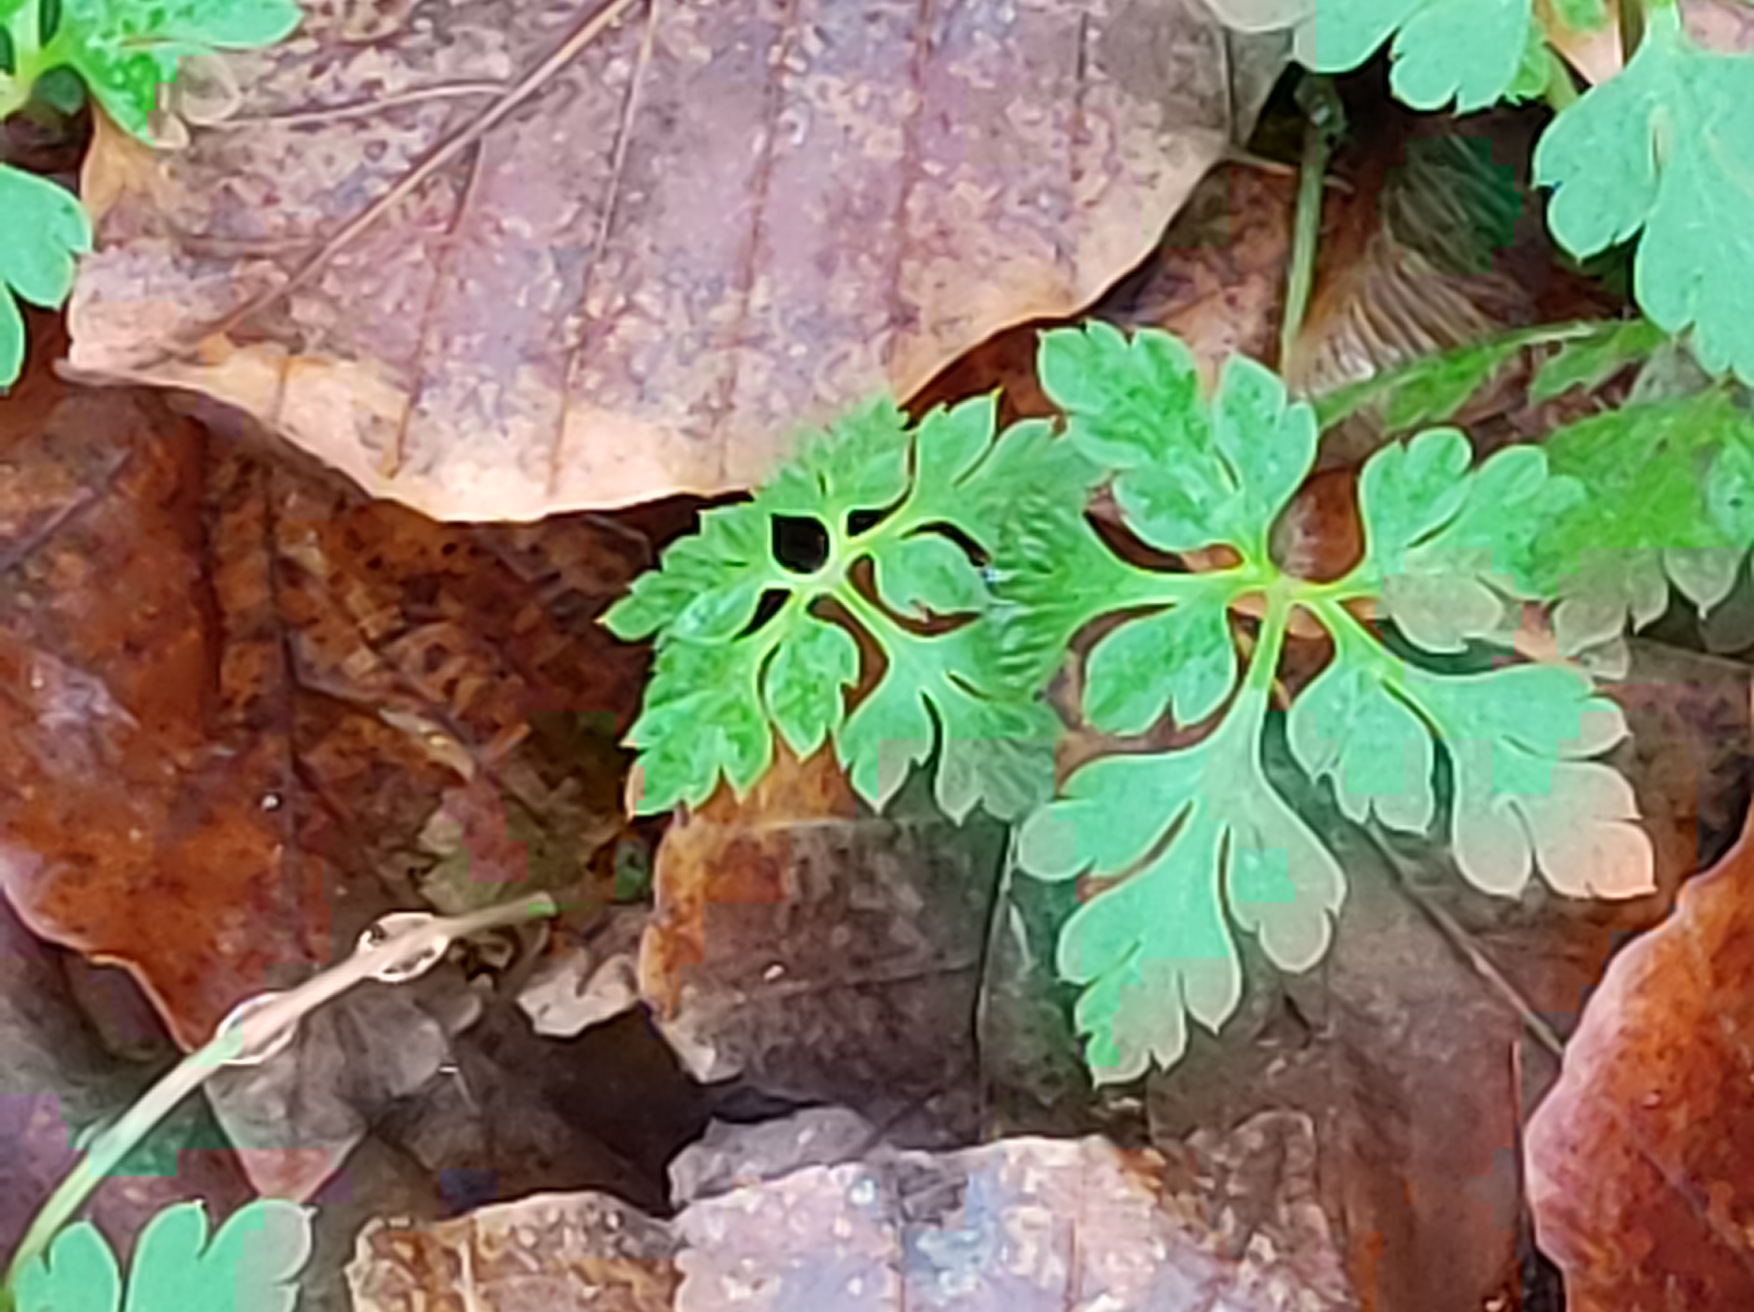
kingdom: Plantae
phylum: Tracheophyta
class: Magnoliopsida
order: Geraniales
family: Geraniaceae
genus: Geranium
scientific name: Geranium robertianum
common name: Stinkende storkenæb
